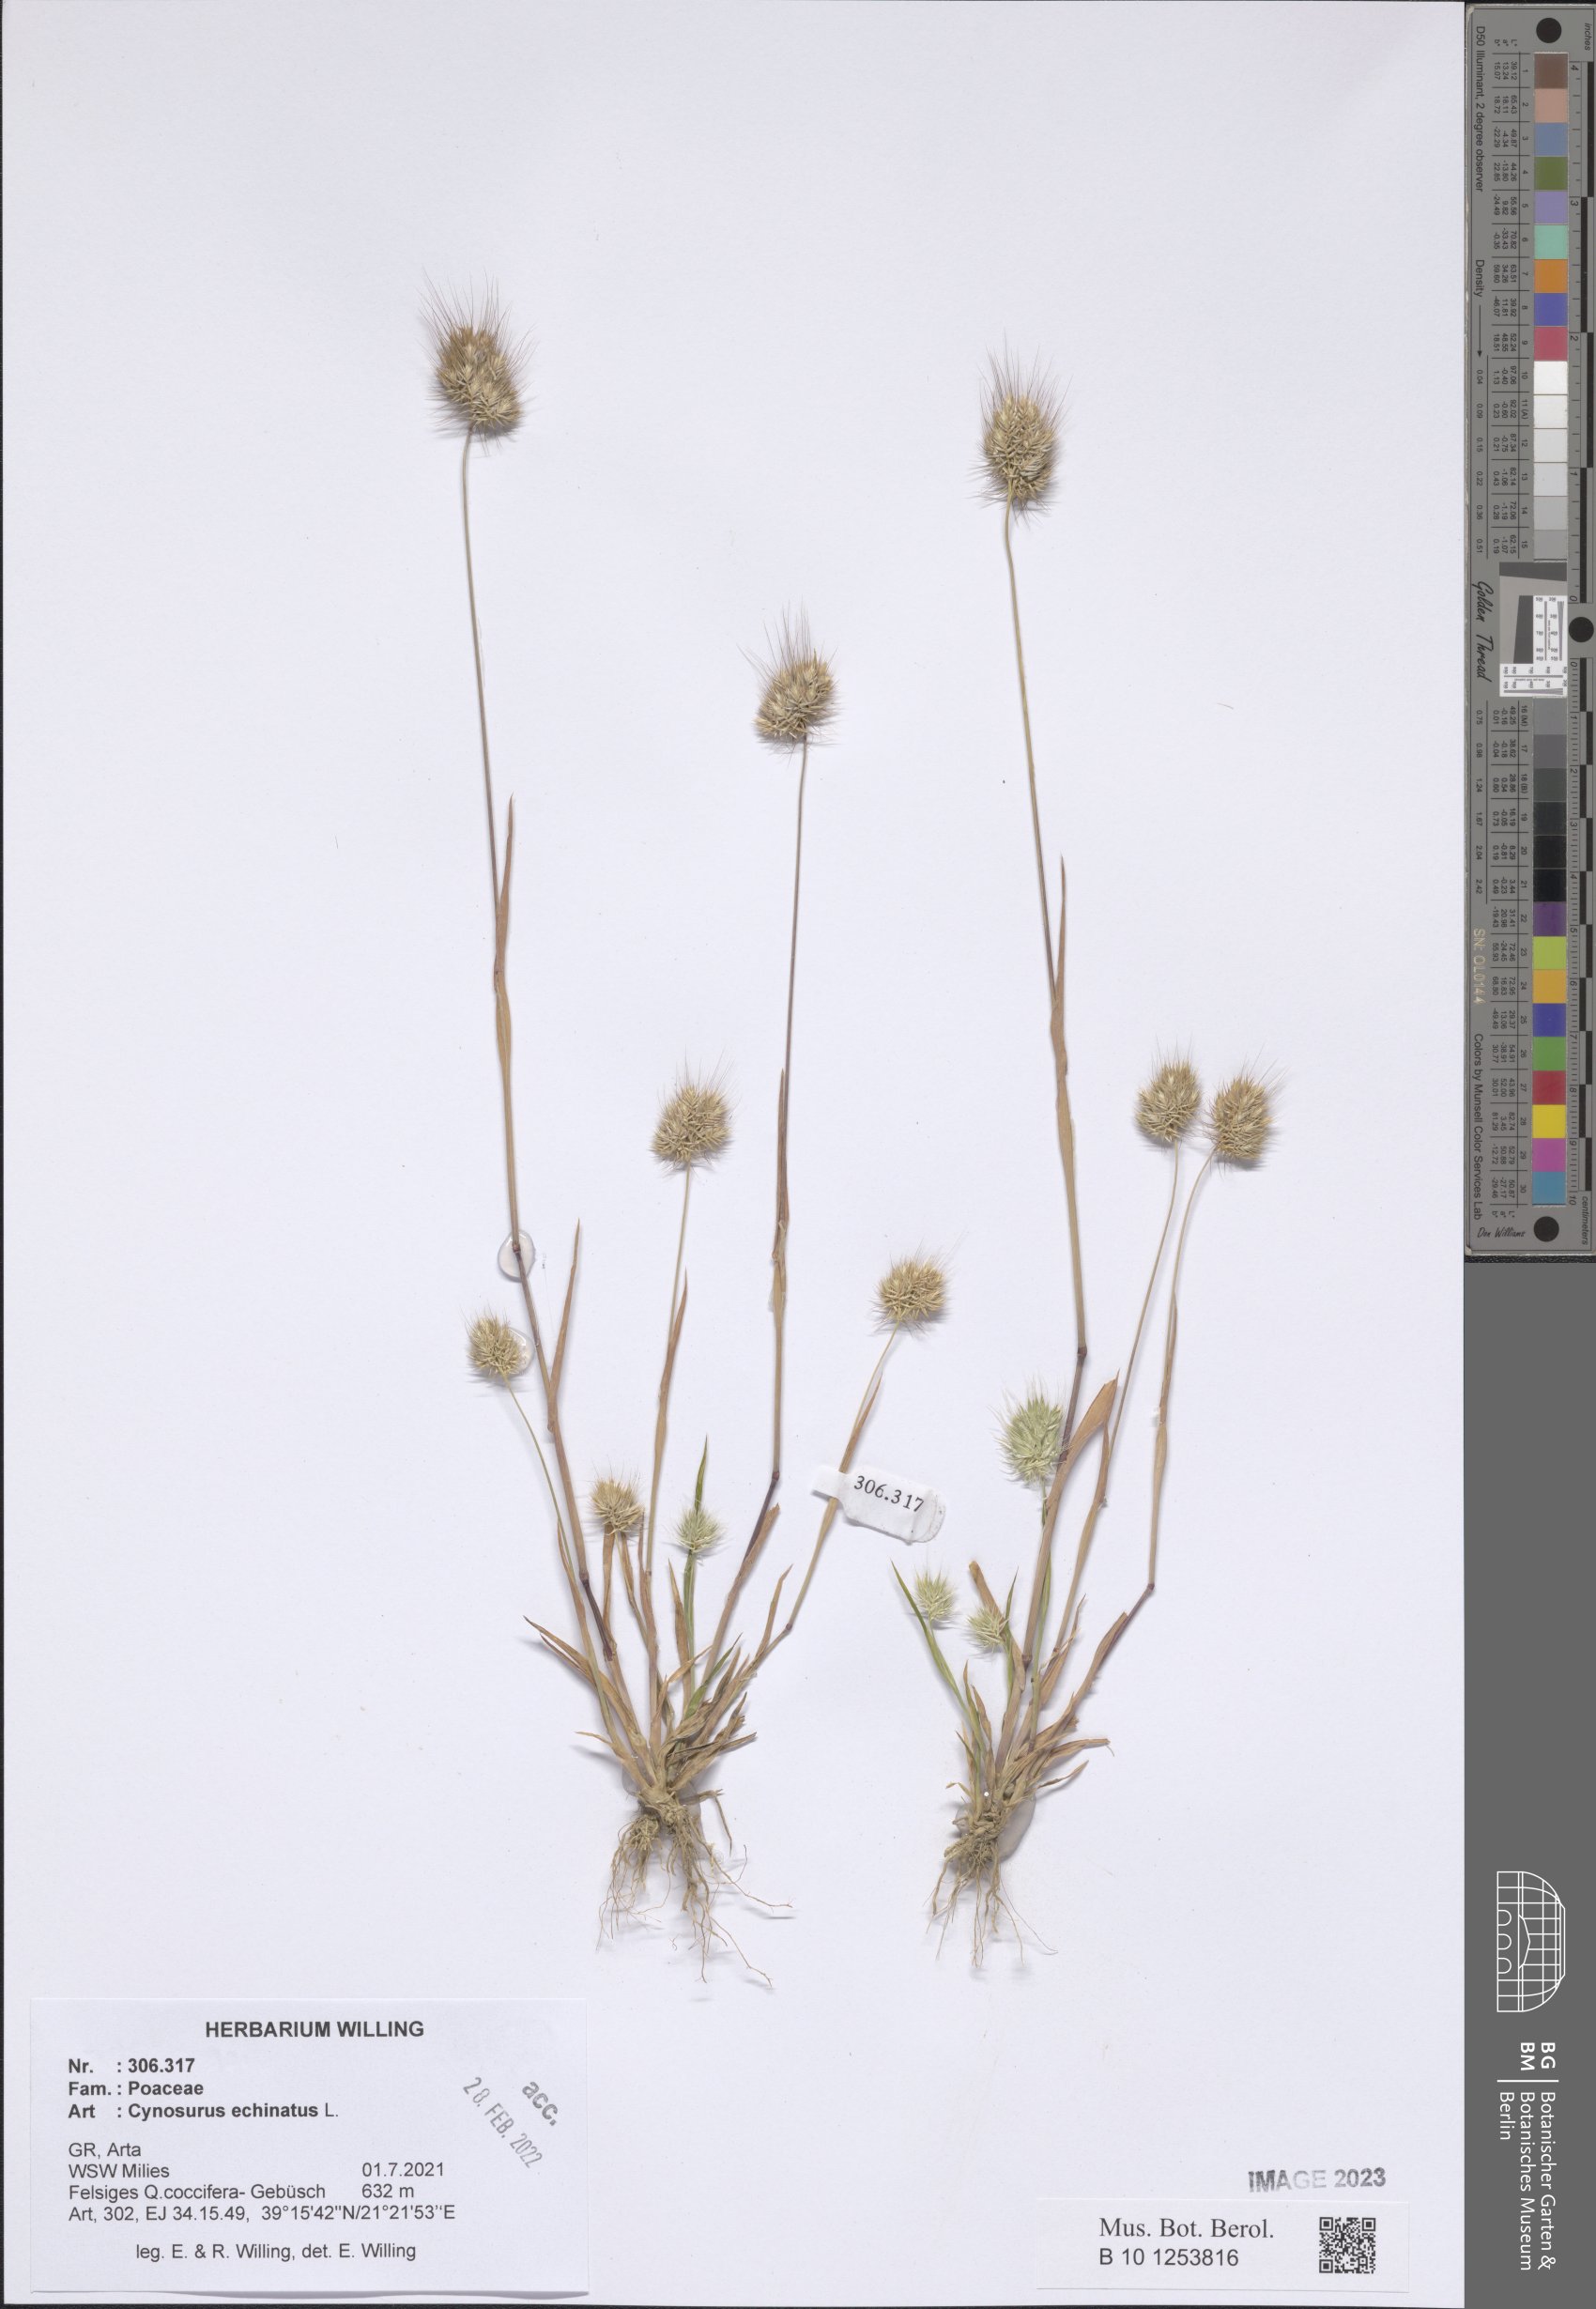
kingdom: Plantae
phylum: Tracheophyta
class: Liliopsida
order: Poales
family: Poaceae
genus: Cynosurus
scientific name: Cynosurus echinatus
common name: Rough dog's-tail
